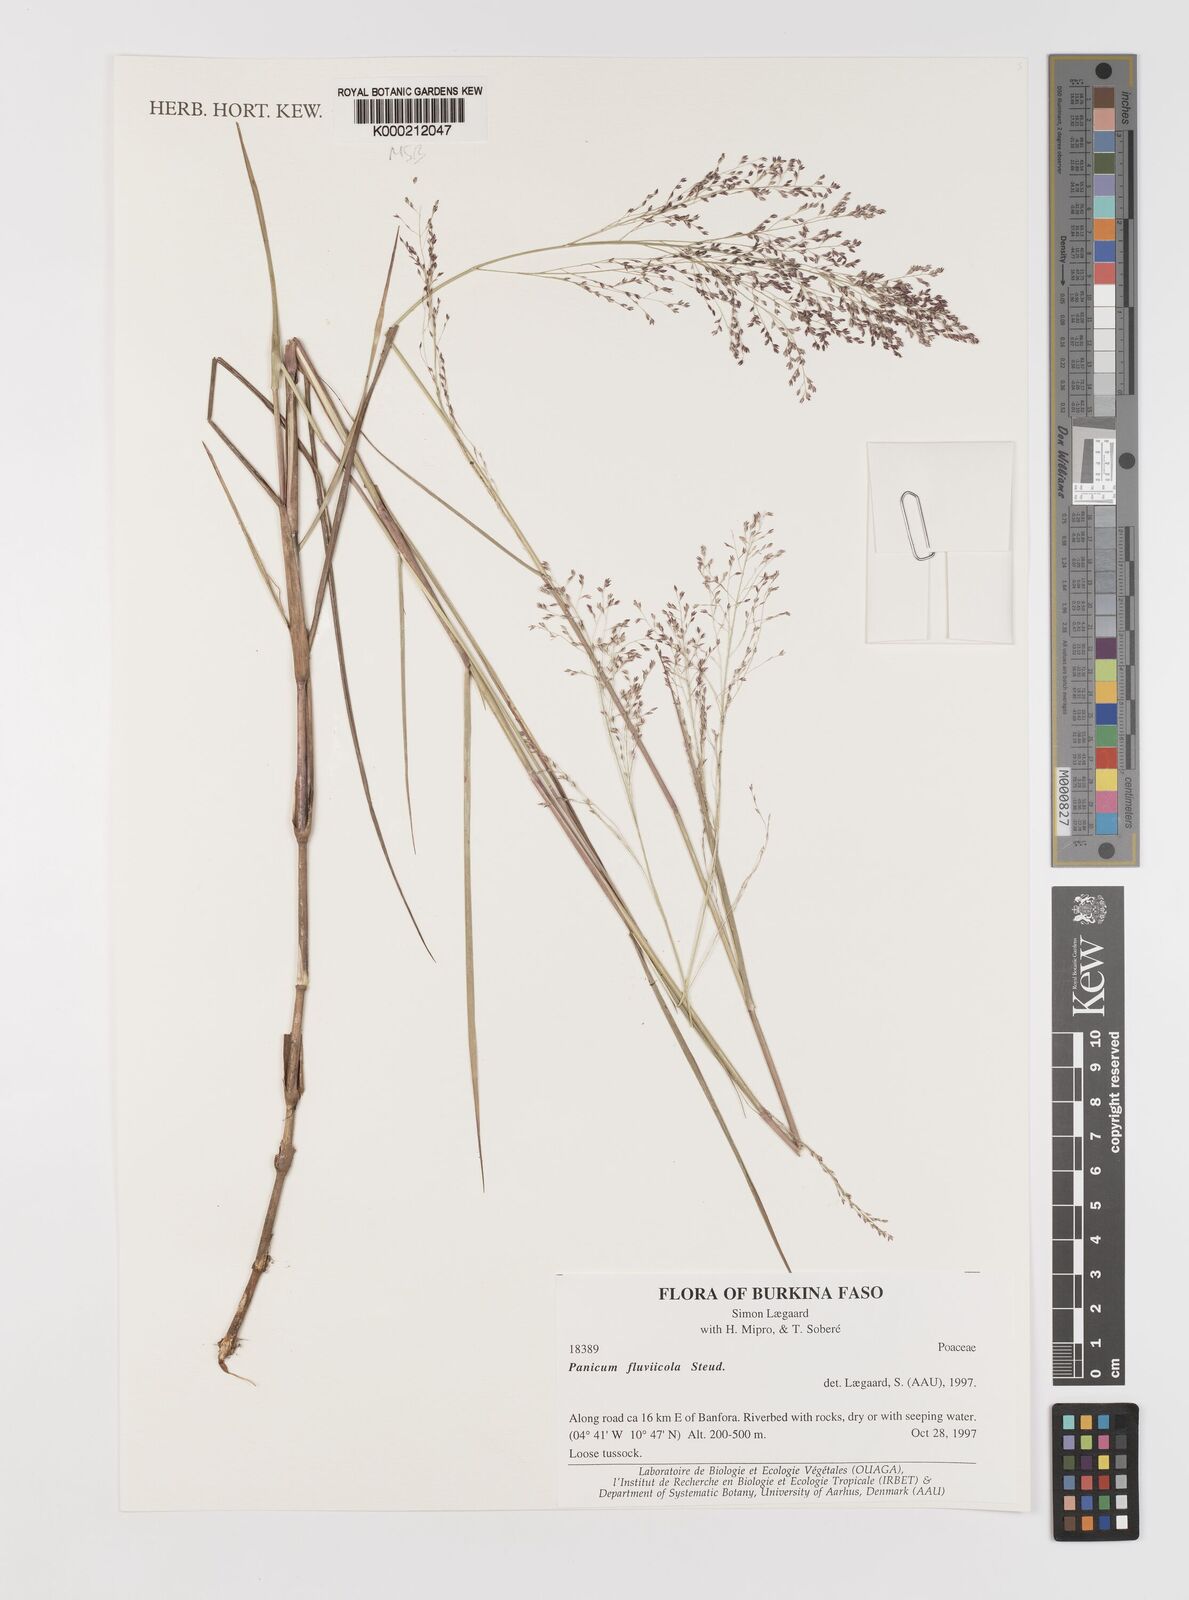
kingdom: Plantae
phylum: Tracheophyta
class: Liliopsida
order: Poales
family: Poaceae
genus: Panicum
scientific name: Panicum fluviicola
